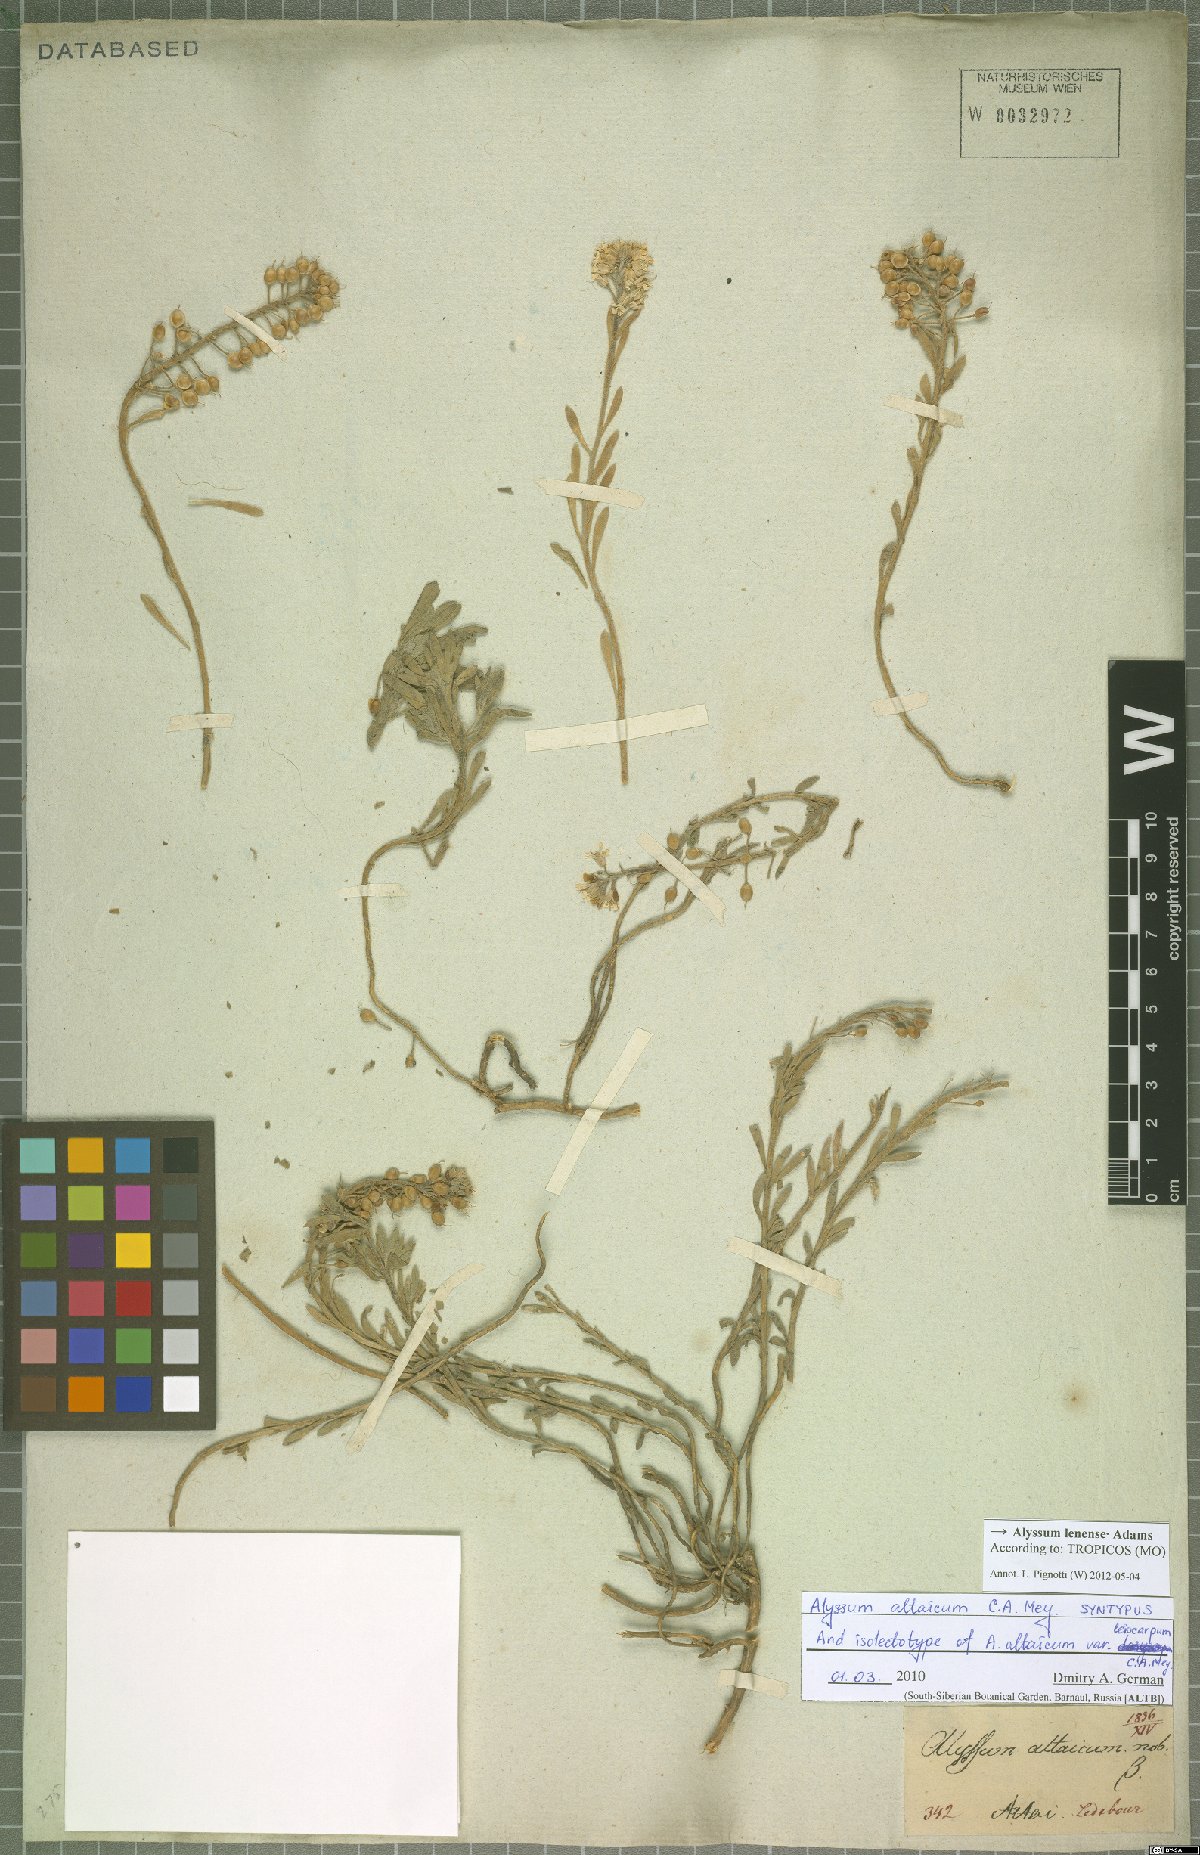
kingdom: Plantae
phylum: Tracheophyta
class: Magnoliopsida
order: Brassicales
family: Brassicaceae
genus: Alyssum
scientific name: Alyssum lenense
